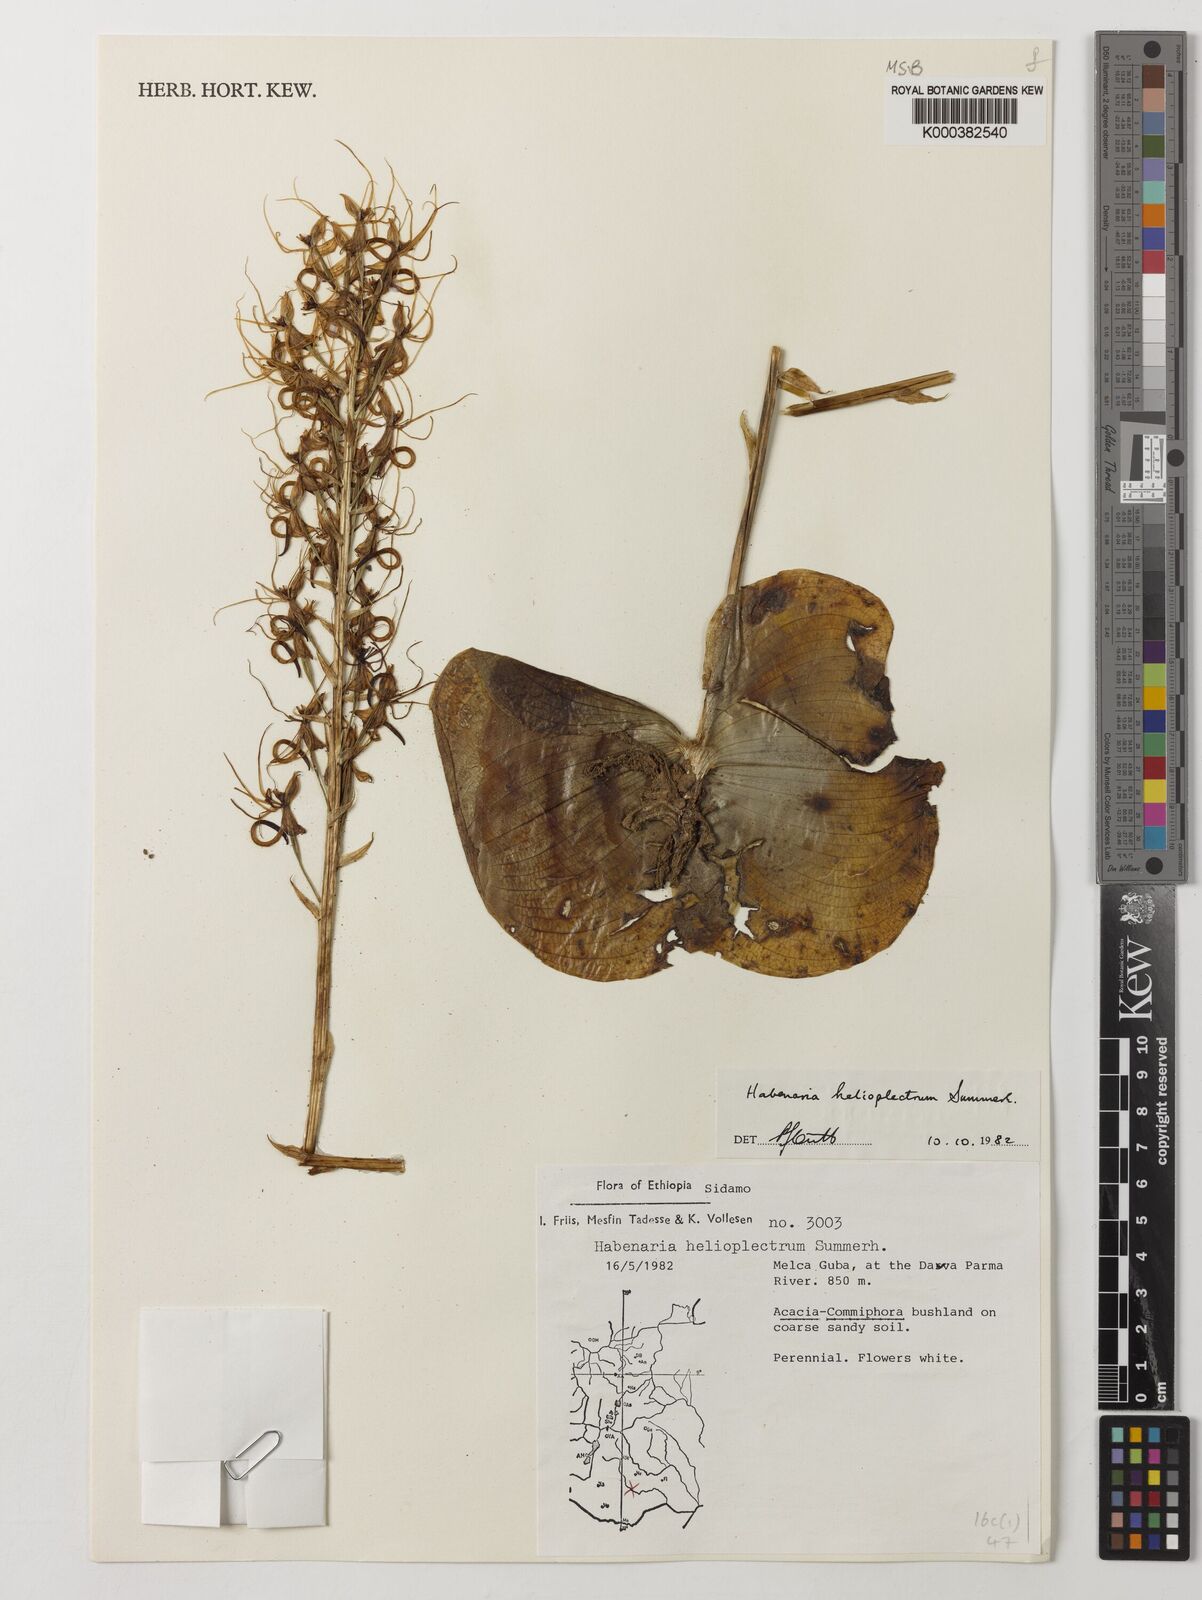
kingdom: Plantae
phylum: Tracheophyta
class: Liliopsida
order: Asparagales
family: Orchidaceae
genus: Habenaria
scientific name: Habenaria helicoplectrum
